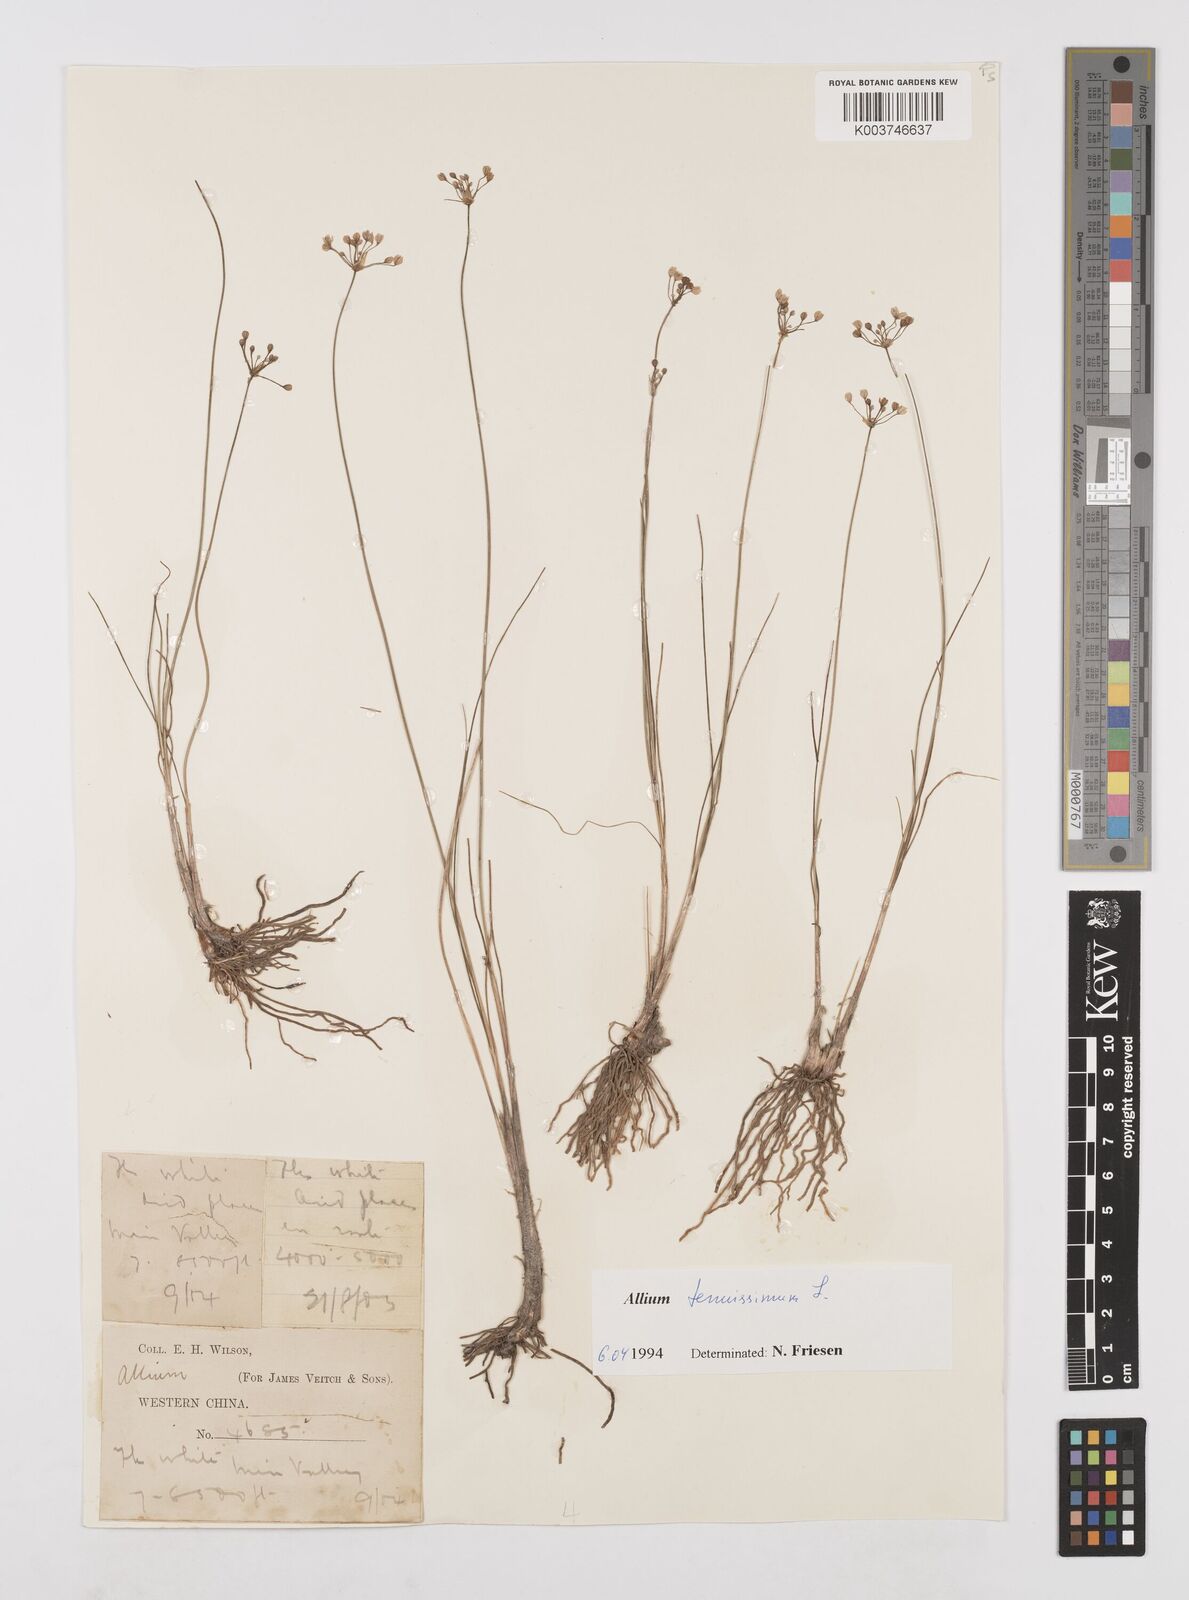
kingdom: Plantae
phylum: Tracheophyta
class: Liliopsida
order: Asparagales
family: Amaryllidaceae
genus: Allium
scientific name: Allium tenuissimum
